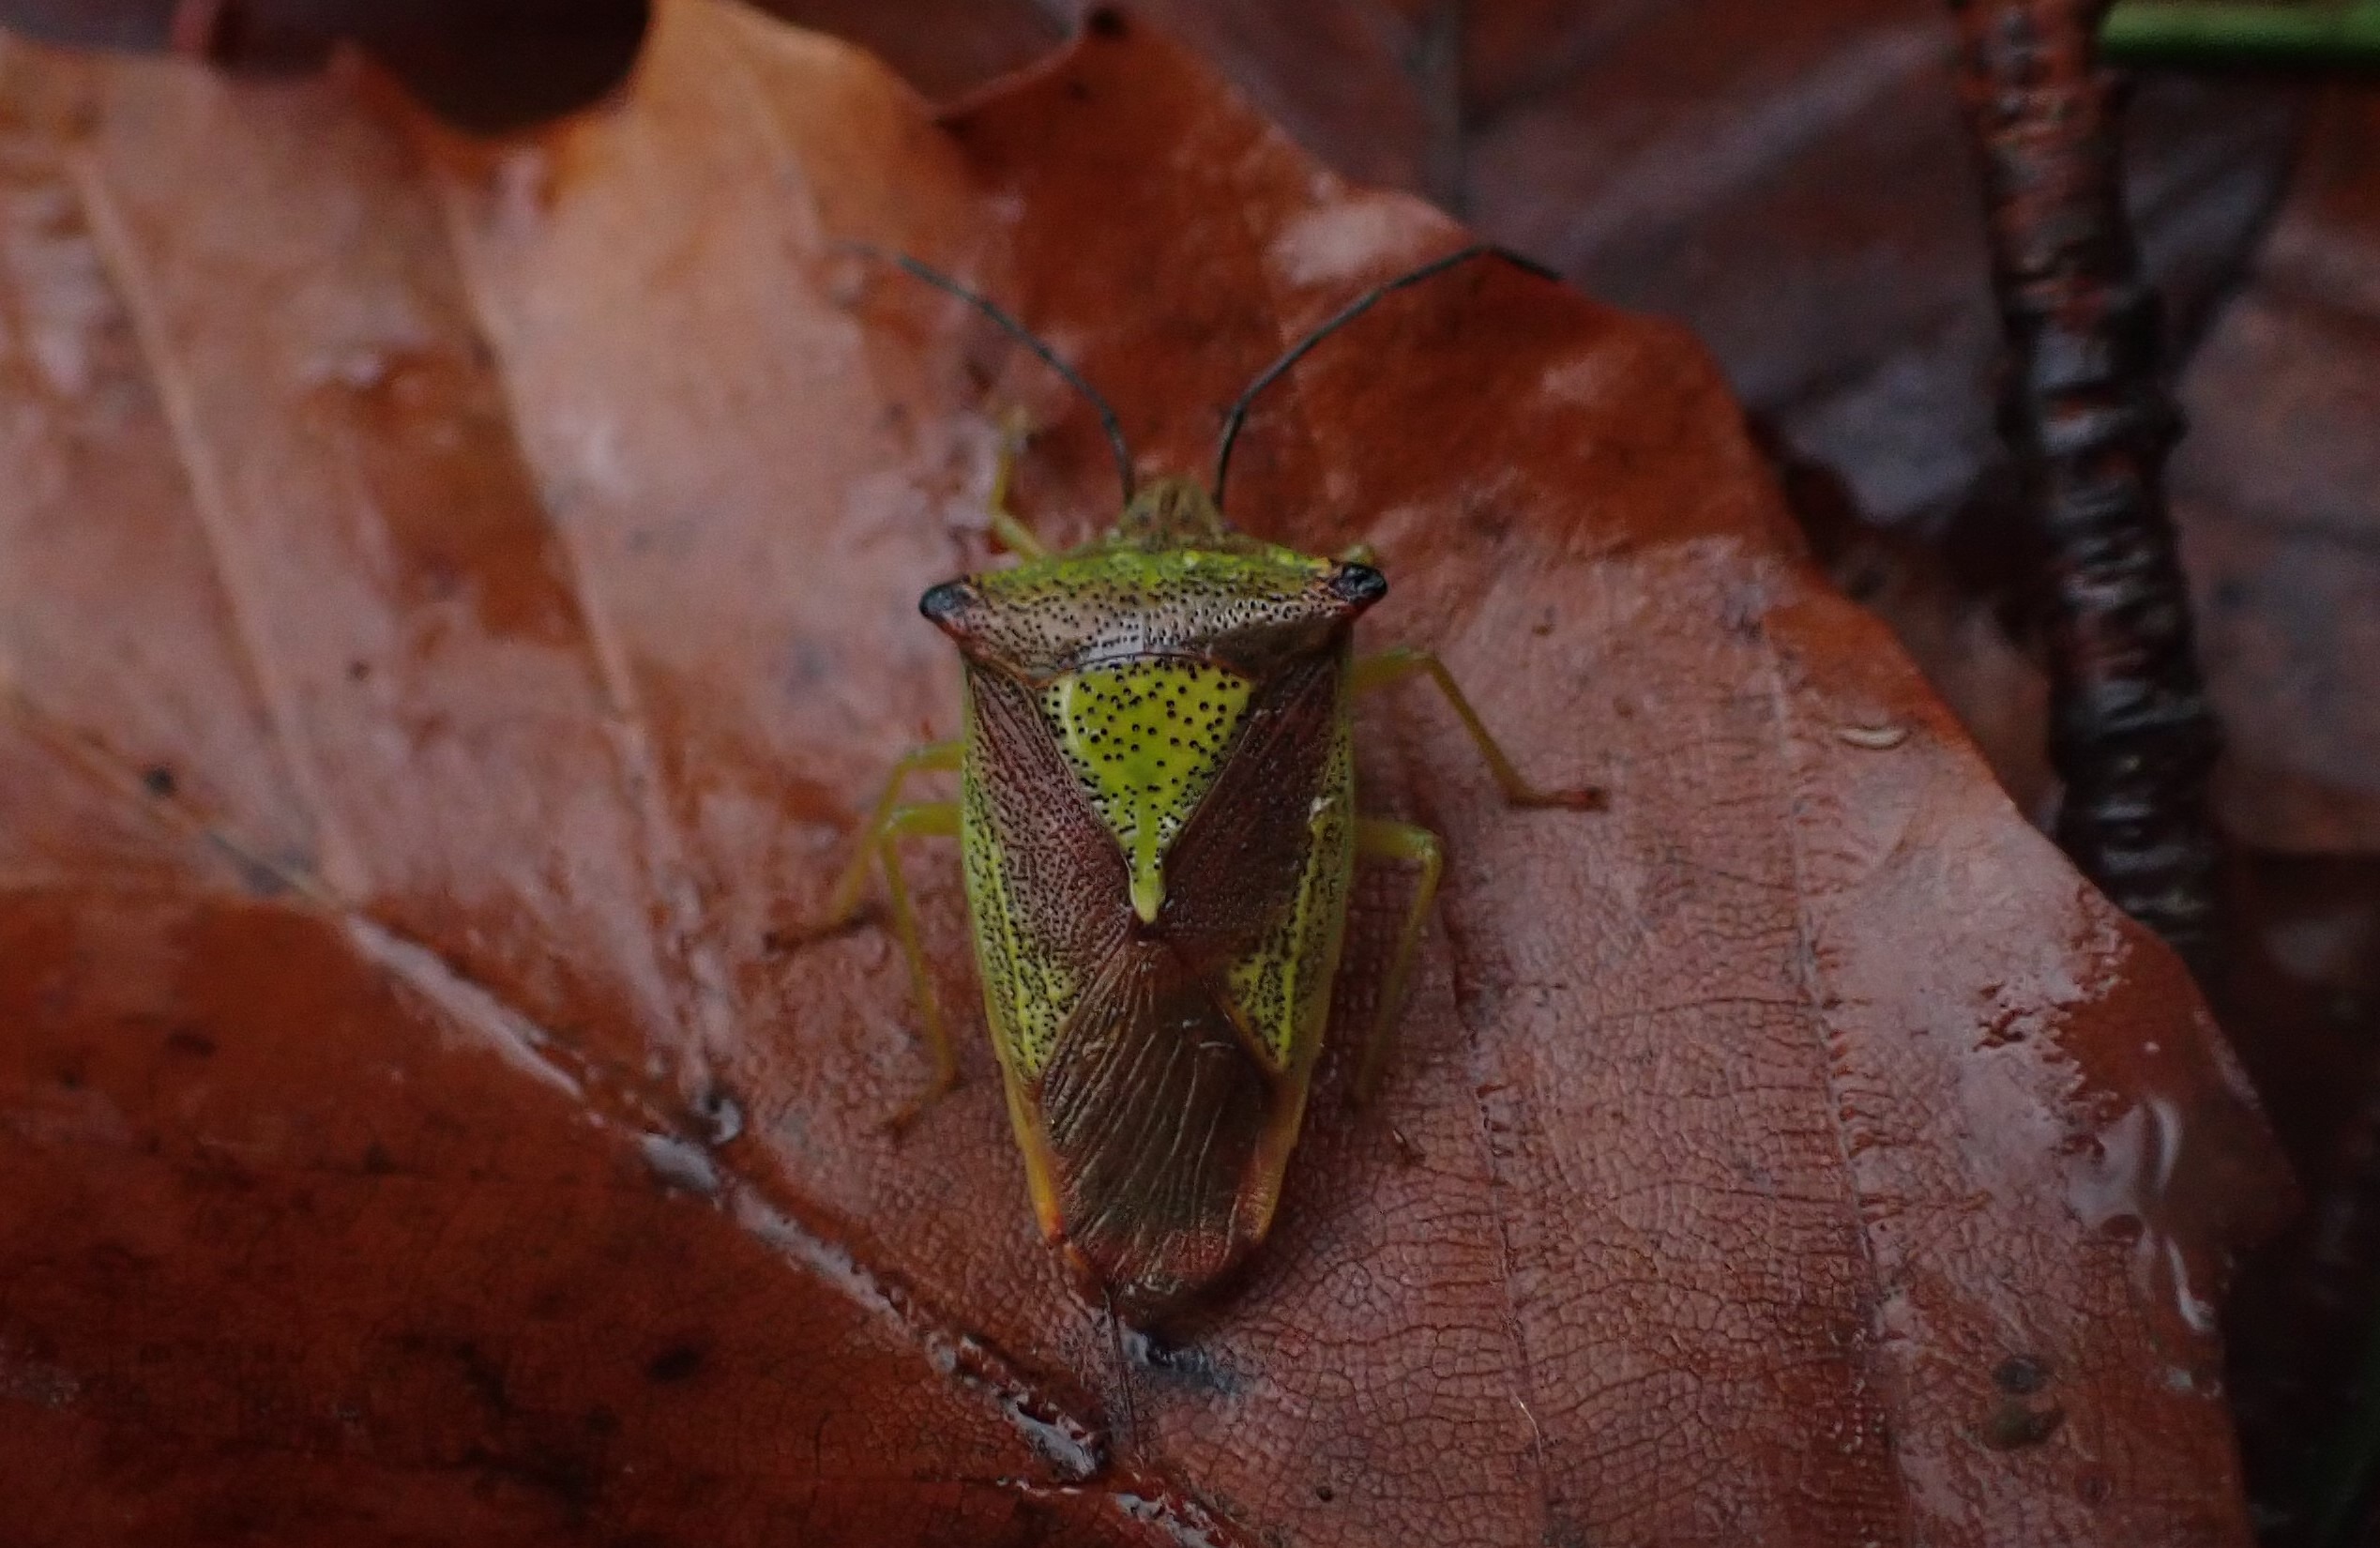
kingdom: Animalia
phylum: Arthropoda
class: Insecta
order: Hemiptera
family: Acanthosomatidae
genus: Acanthosoma
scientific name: Acanthosoma haemorrhoidale
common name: Stor løvtæge
